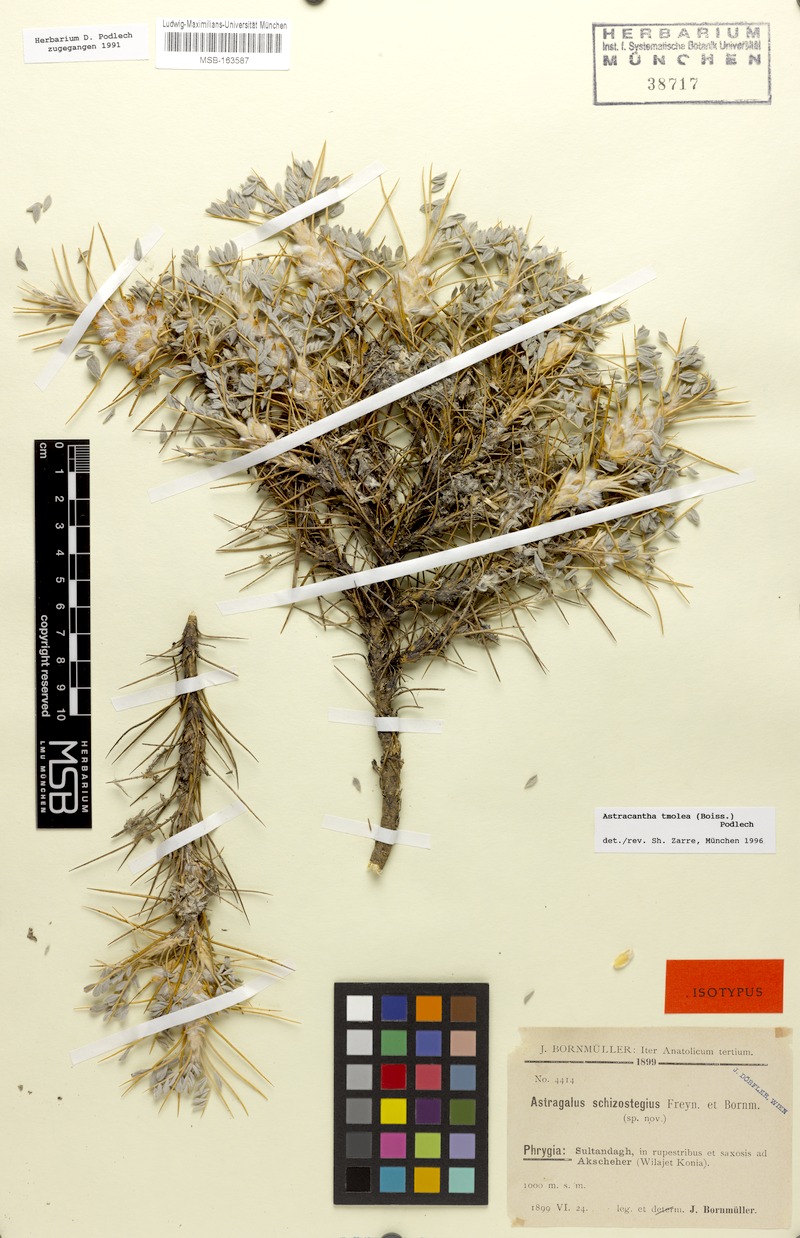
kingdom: Plantae
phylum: Tracheophyta
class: Magnoliopsida
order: Fabales
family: Fabaceae
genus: Astragalus
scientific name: Astragalus tmoleus
